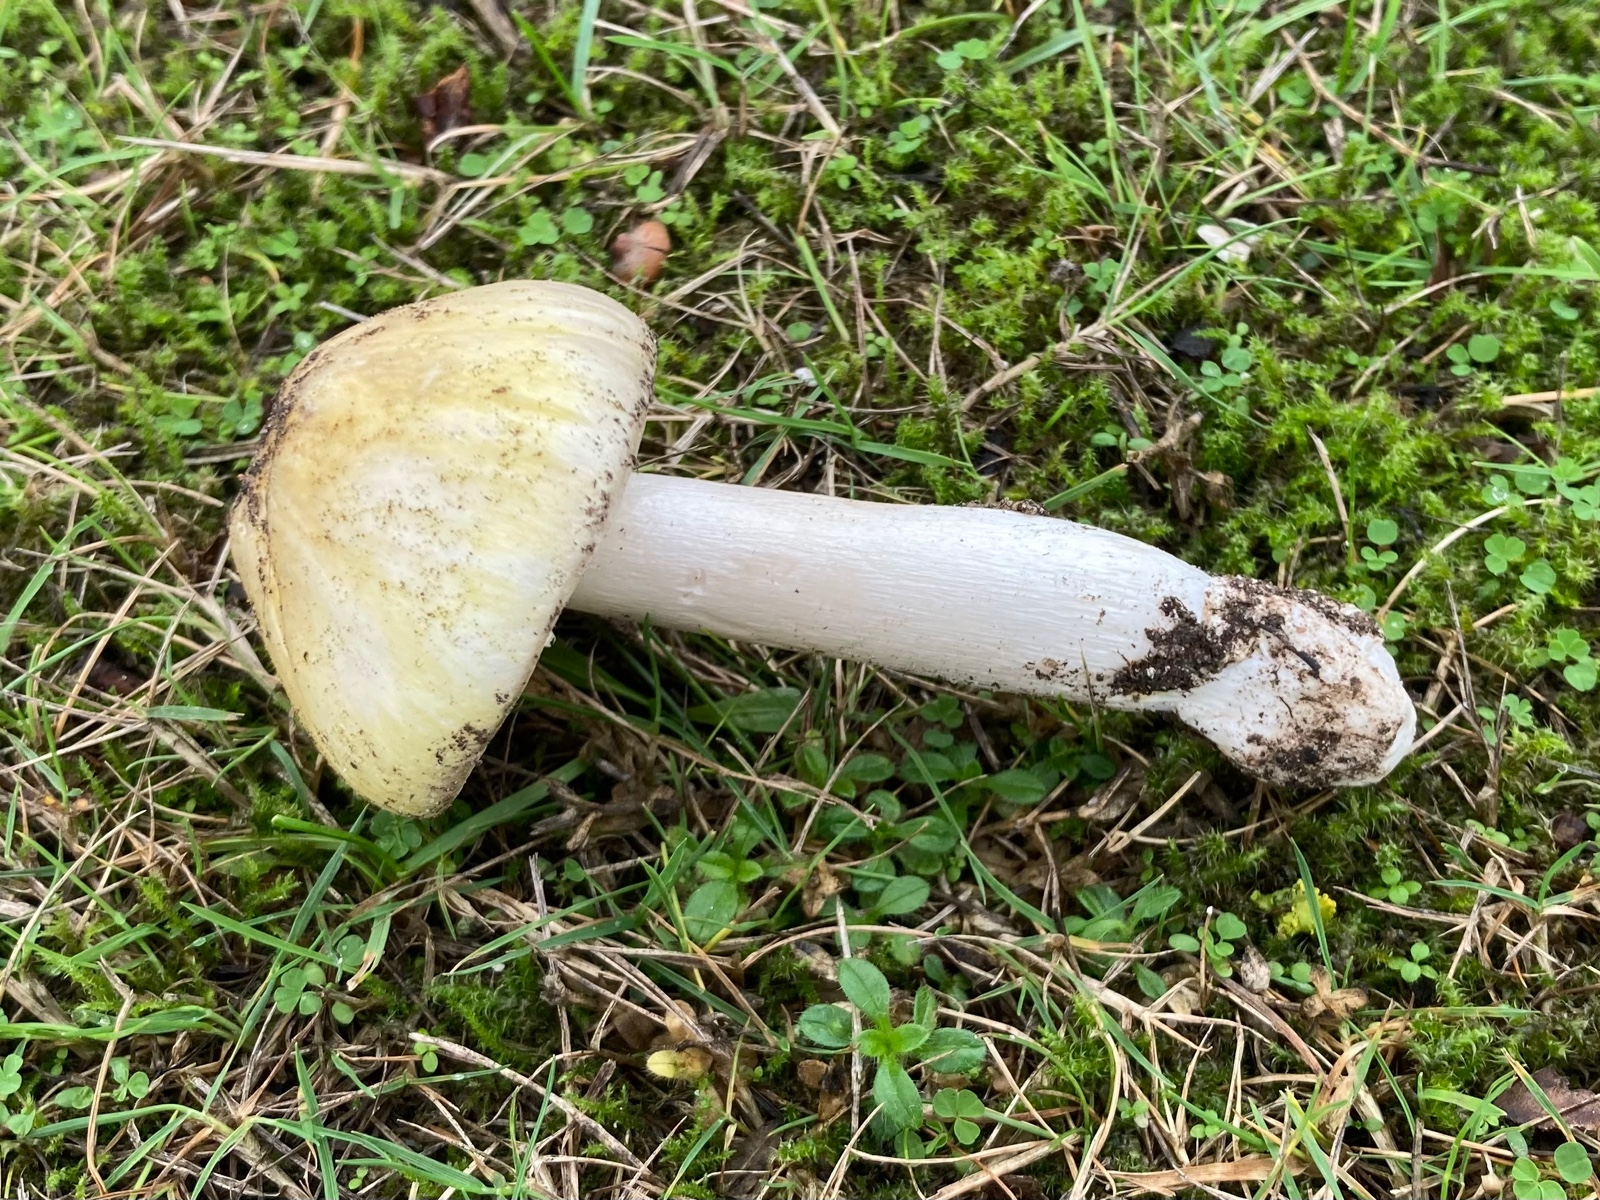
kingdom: Fungi
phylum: Basidiomycota
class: Agaricomycetes
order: Agaricales
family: Amanitaceae
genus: Amanita
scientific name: Amanita phalloides
